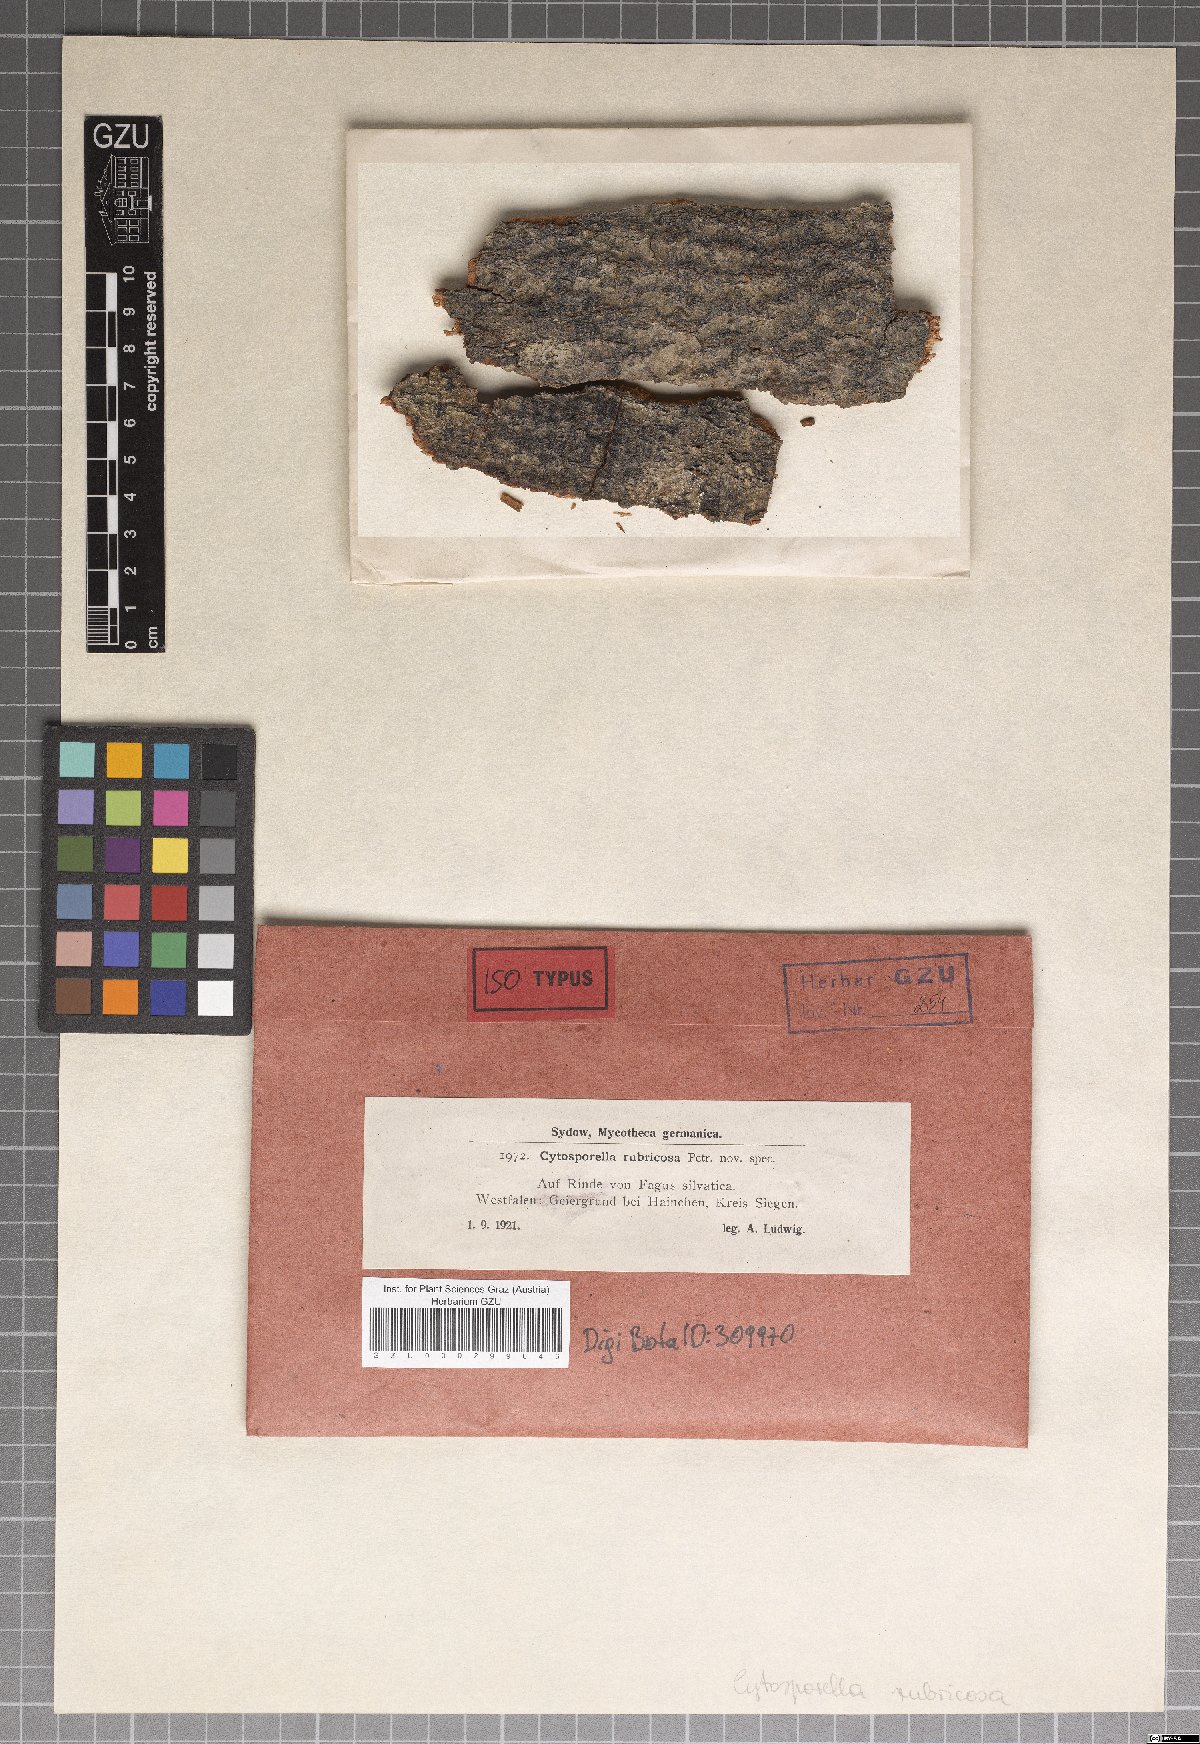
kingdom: Fungi
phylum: Ascomycota
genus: Cytosporella
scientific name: Cytosporella rubricosa
